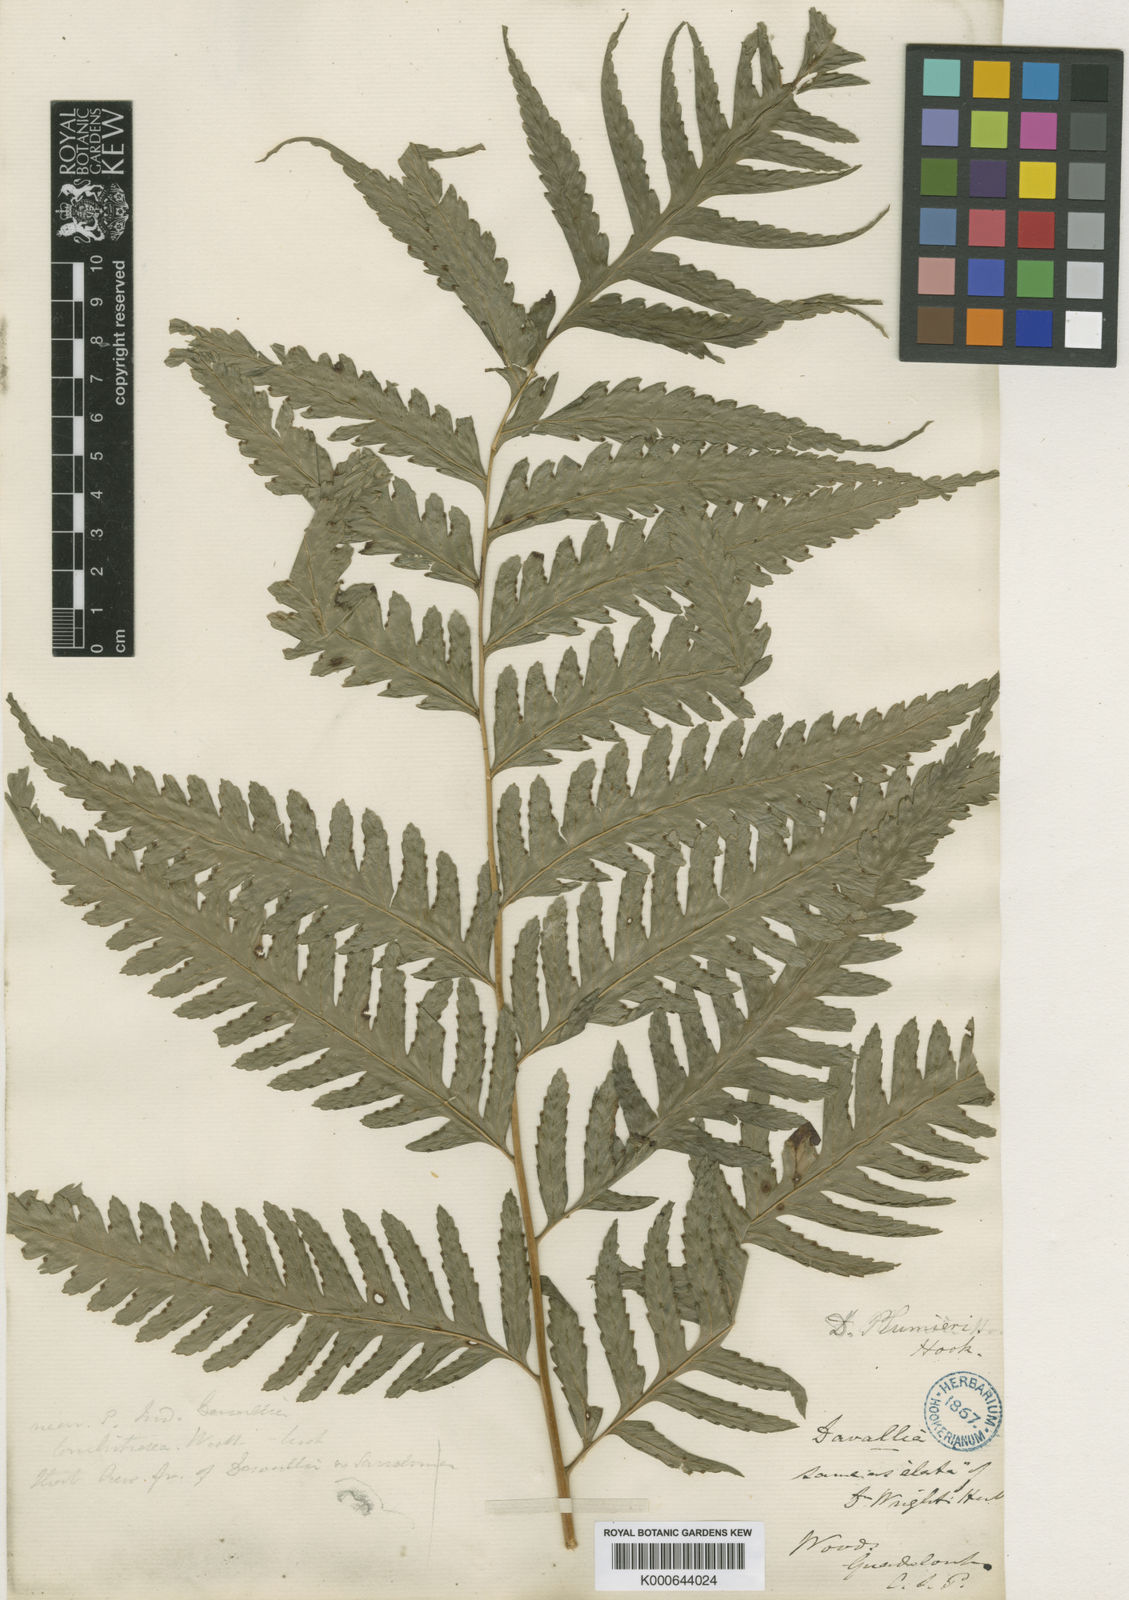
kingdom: Plantae
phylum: Tracheophyta
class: Polypodiopsida
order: Polypodiales
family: Saccolomataceae
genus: Saccoloma
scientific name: Saccoloma domingense
